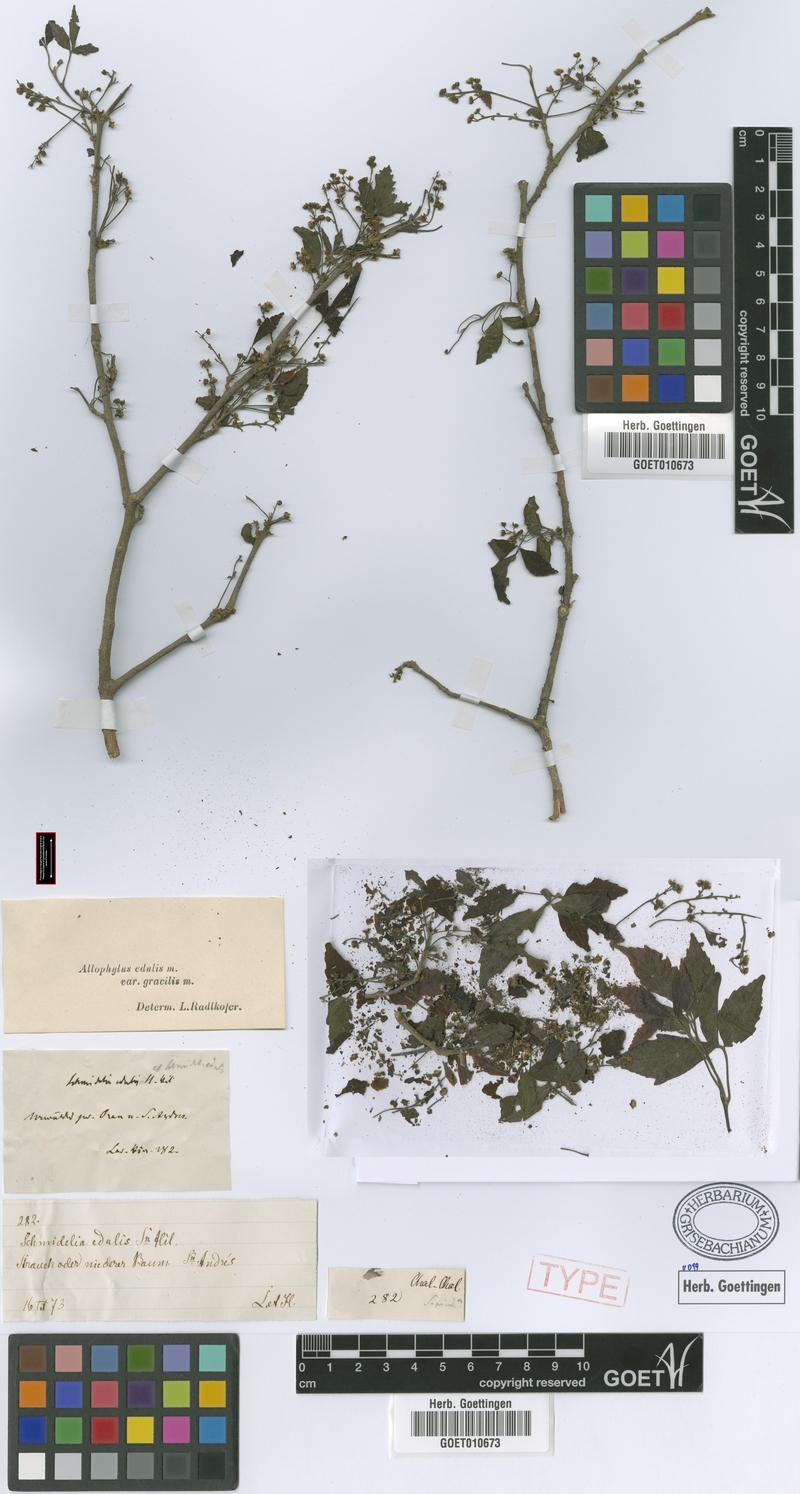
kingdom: Plantae
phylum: Tracheophyta
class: Magnoliopsida
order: Sapindales
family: Sapindaceae
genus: Allophylus
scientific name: Allophylus edulis
